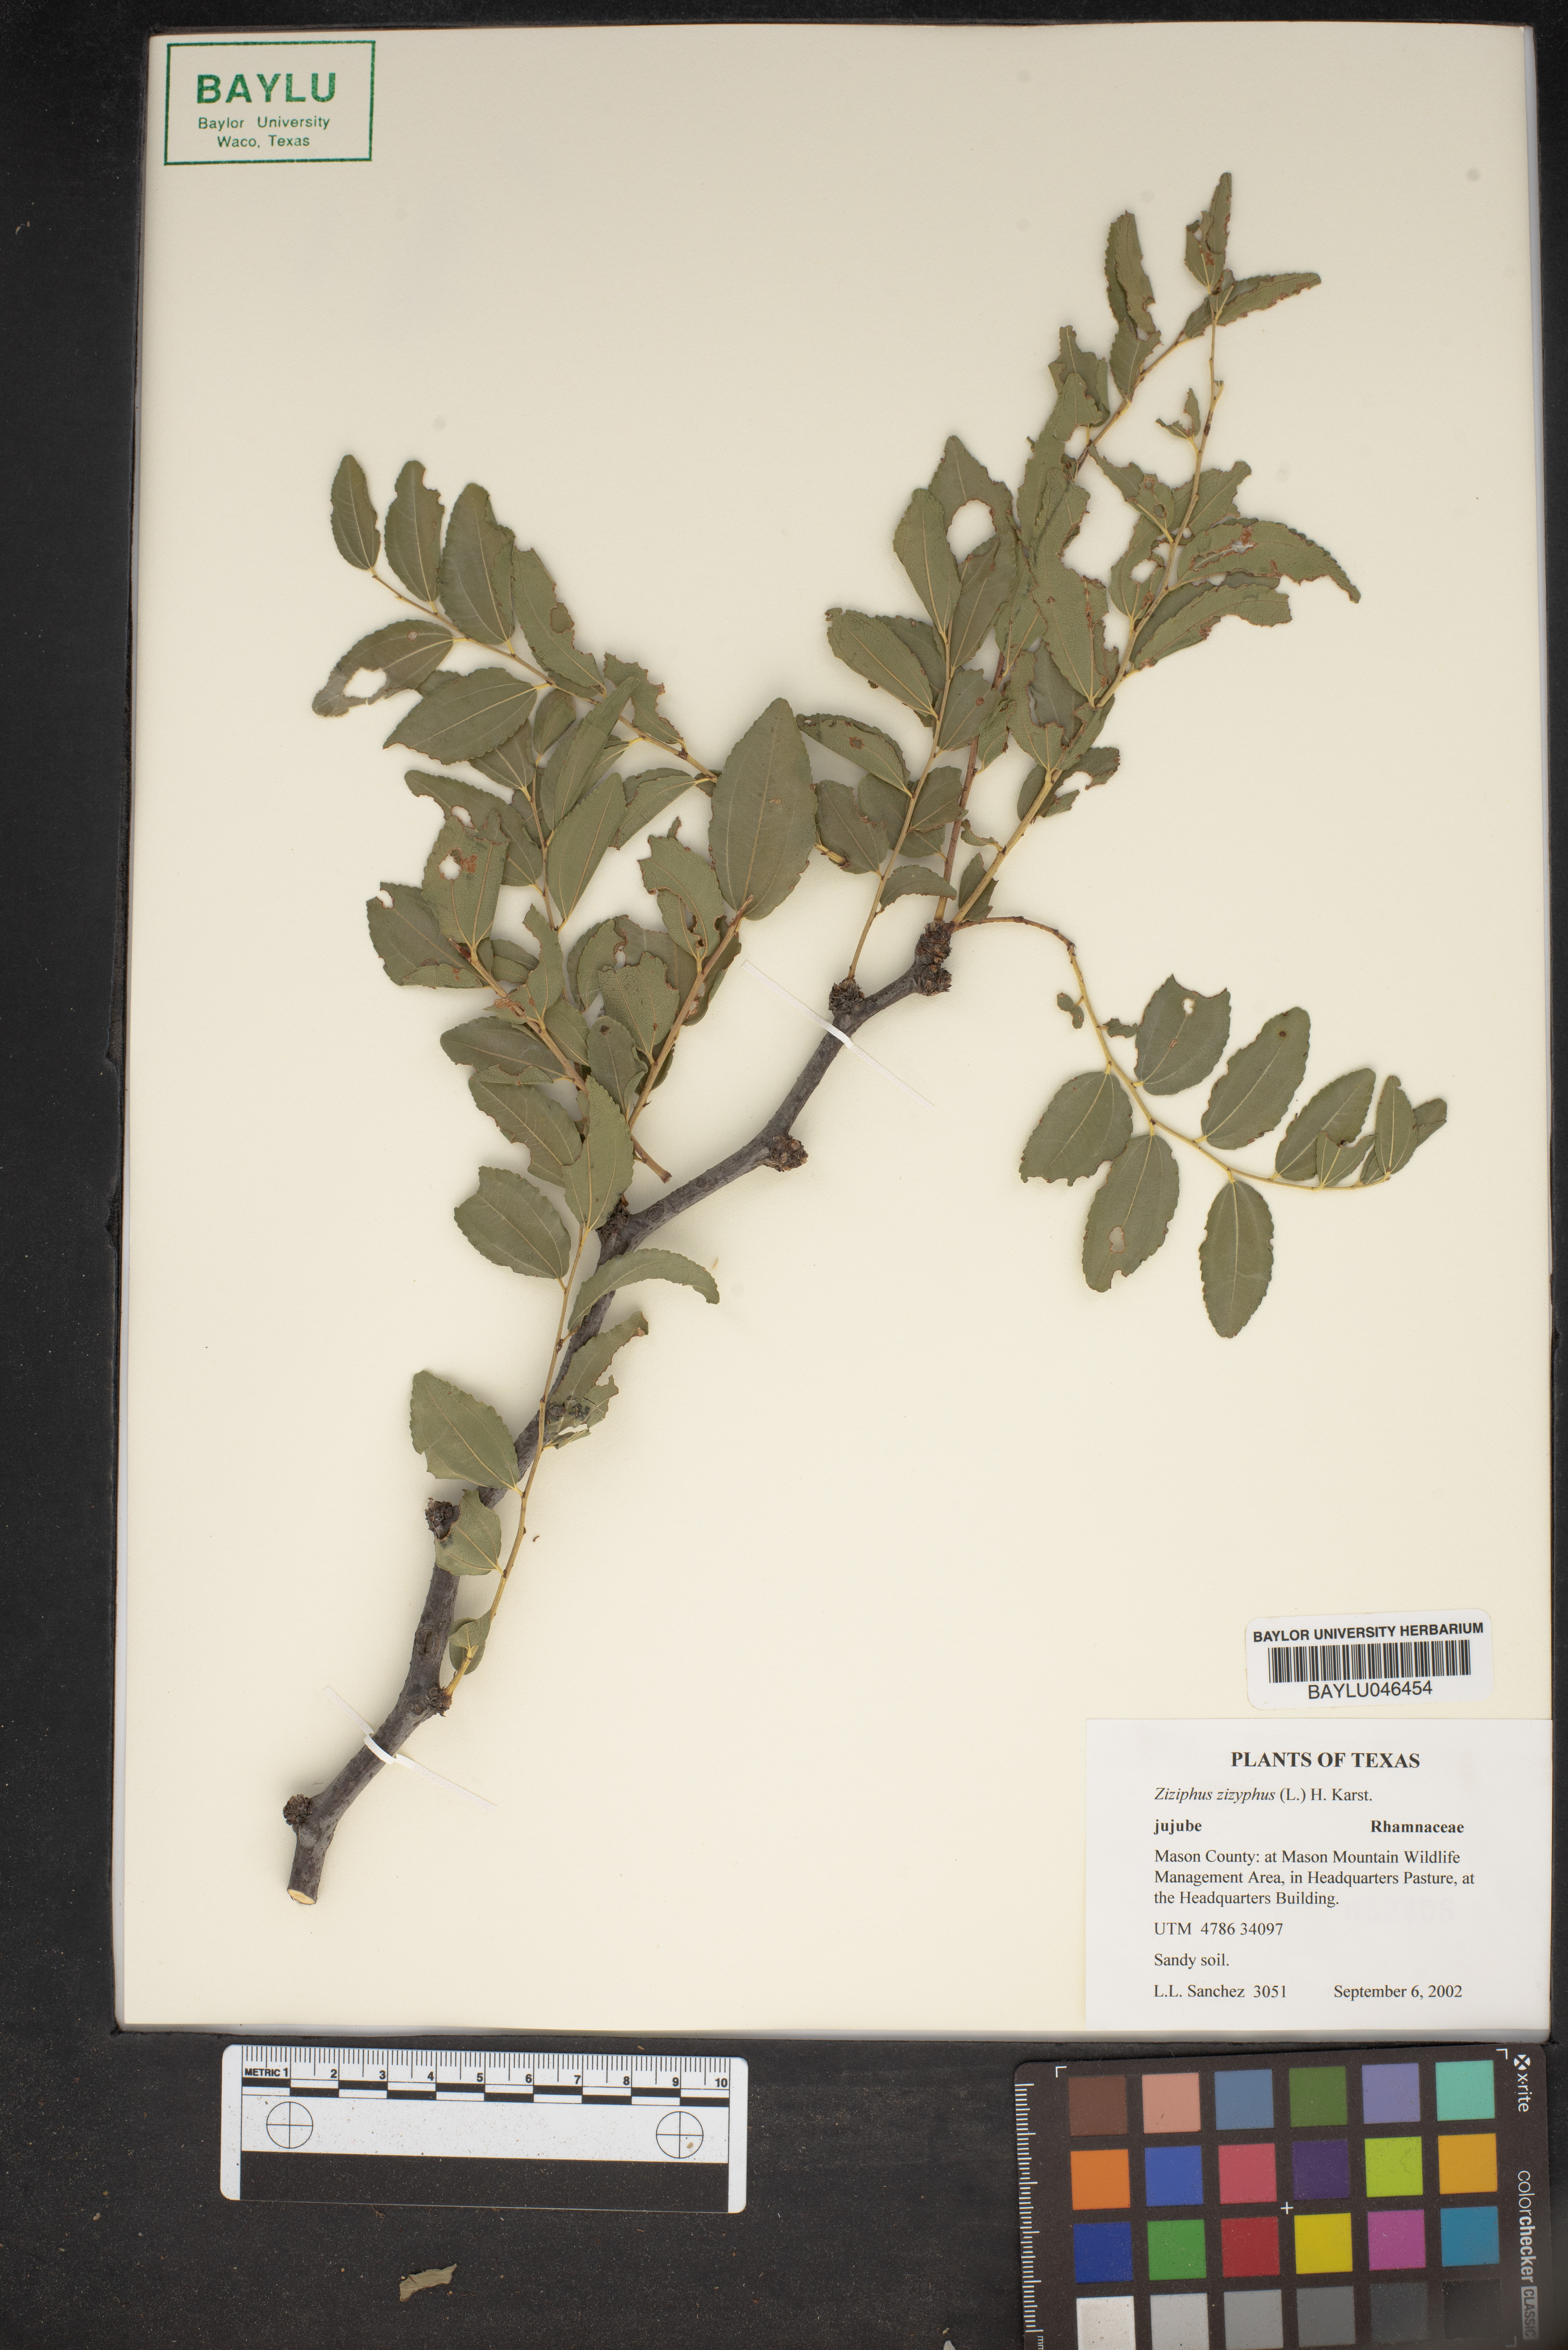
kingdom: Plantae
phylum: Tracheophyta
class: Magnoliopsida
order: Rosales
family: Rhamnaceae
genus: Ziziphus
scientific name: Ziziphus jujuba
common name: Jujube red date
